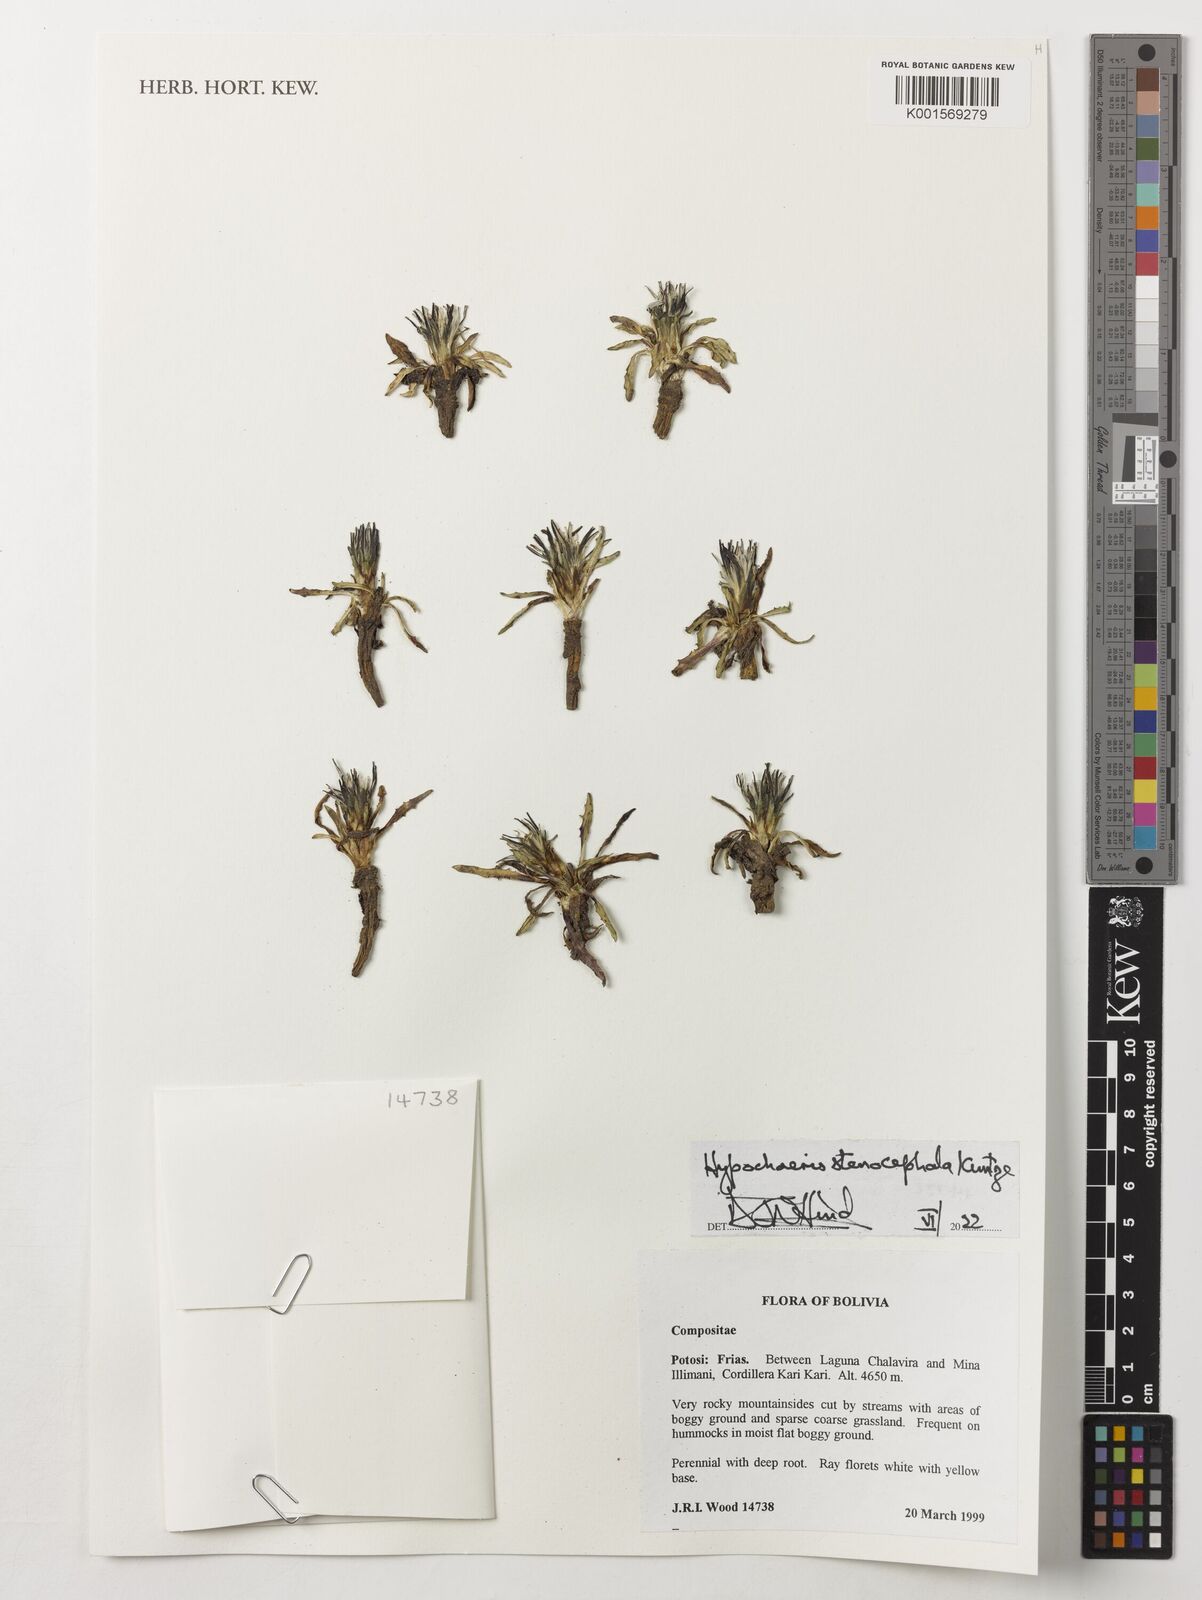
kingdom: Plantae
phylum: Tracheophyta
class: Magnoliopsida
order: Asterales
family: Asteraceae
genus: Hypochaeris
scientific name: Hypochaeris taraxacoides
